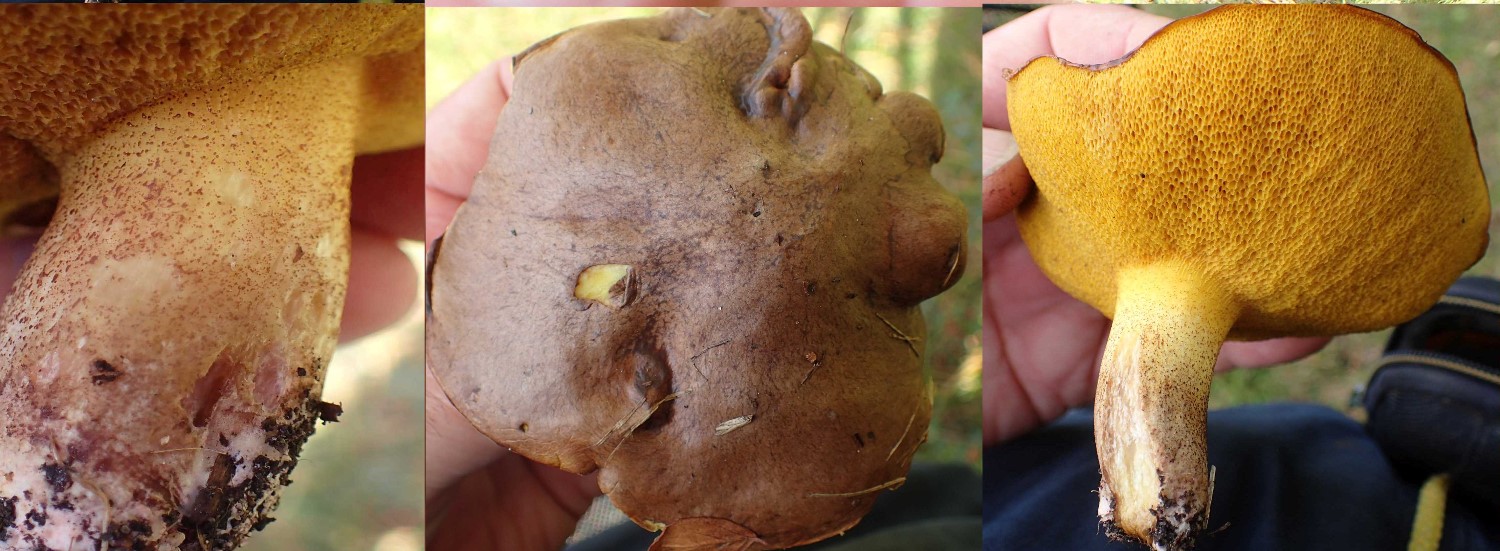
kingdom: Fungi
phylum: Basidiomycota
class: Agaricomycetes
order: Boletales
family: Suillaceae
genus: Suillus
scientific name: Suillus collinitus
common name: rosafodet slimrørhat
